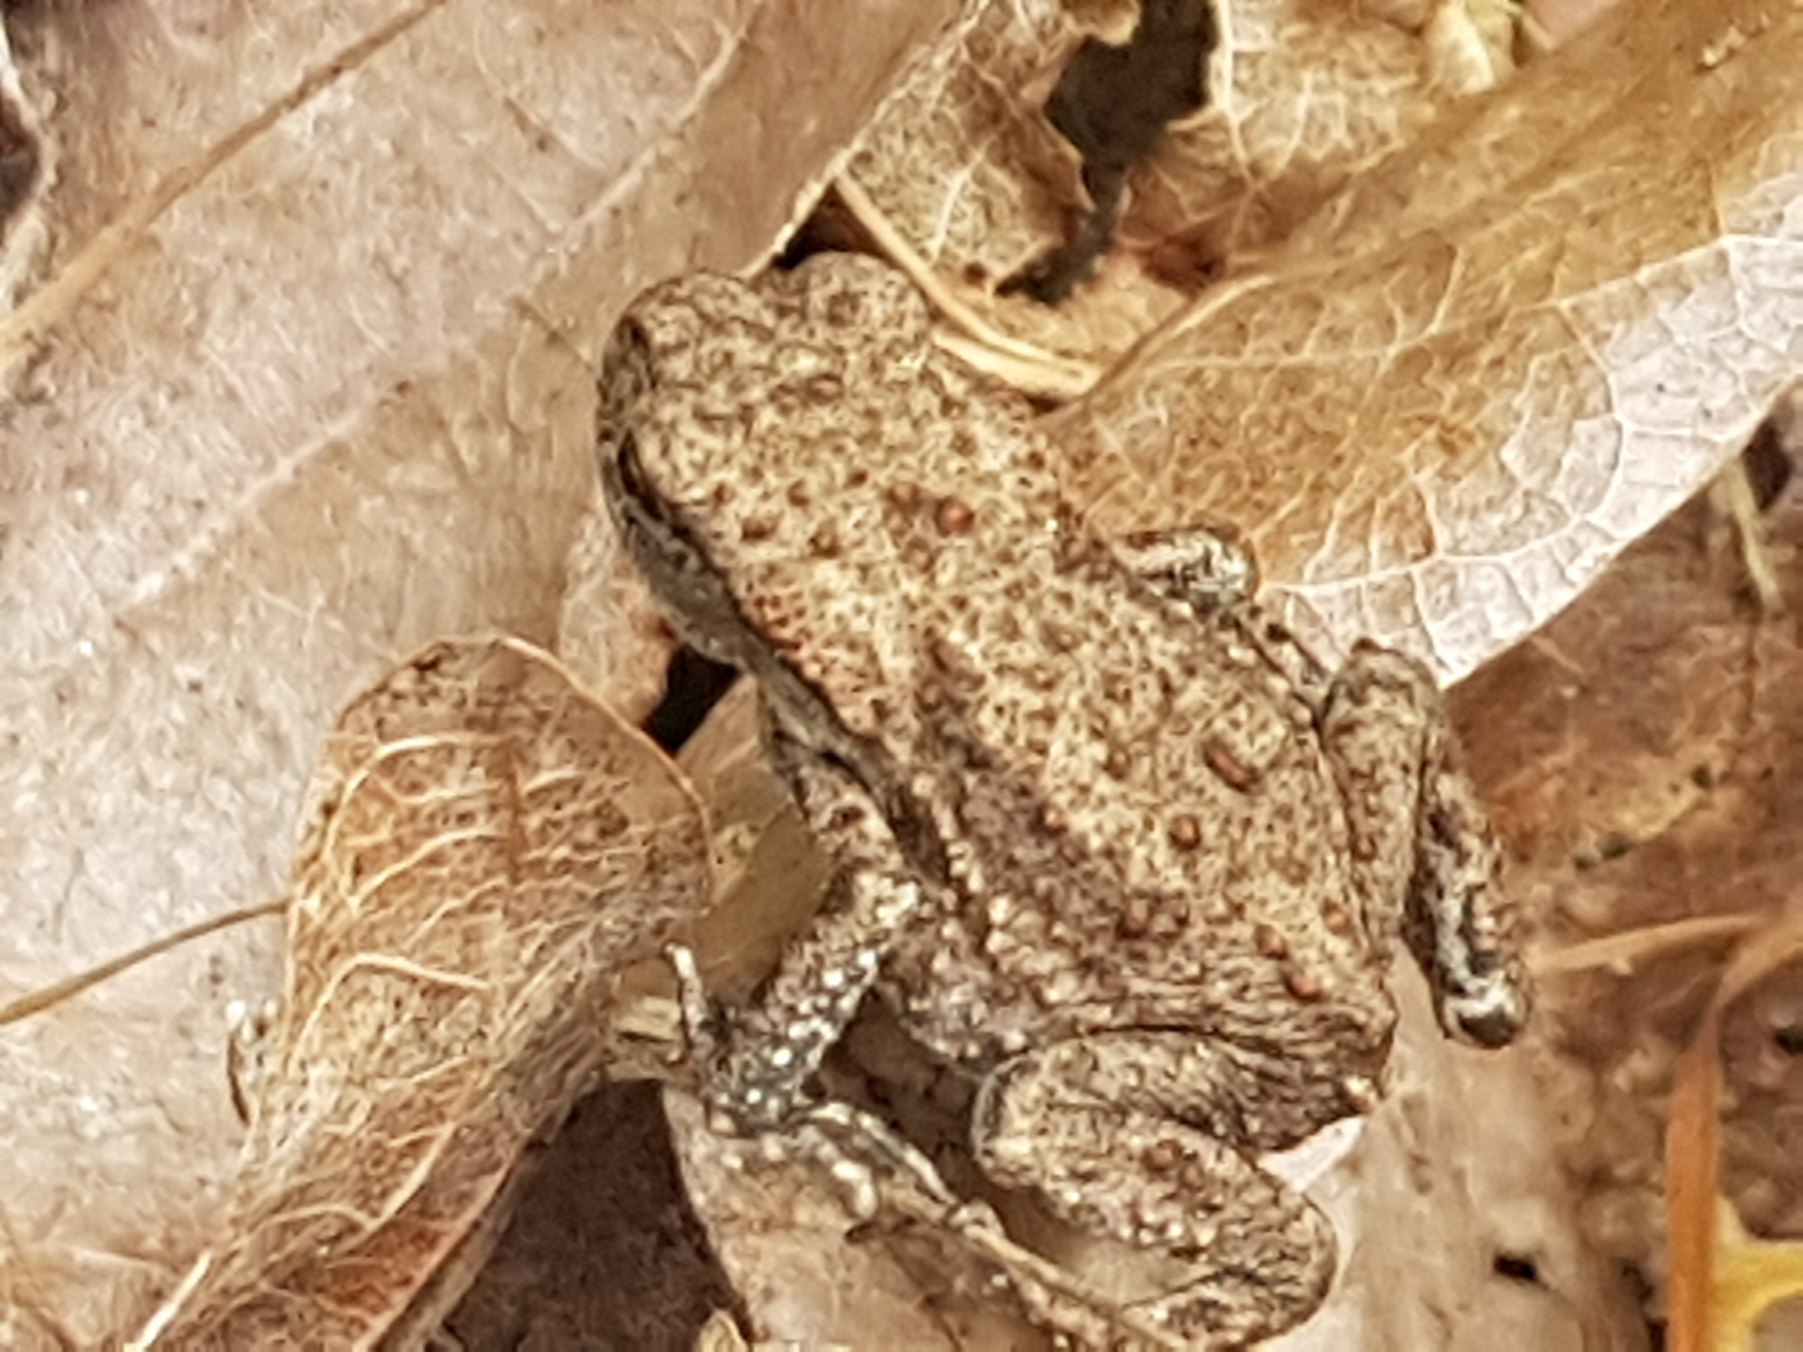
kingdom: Animalia
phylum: Chordata
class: Amphibia
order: Anura
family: Bufonidae
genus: Bufo
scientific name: Bufo bufo
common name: Skrubtudse
